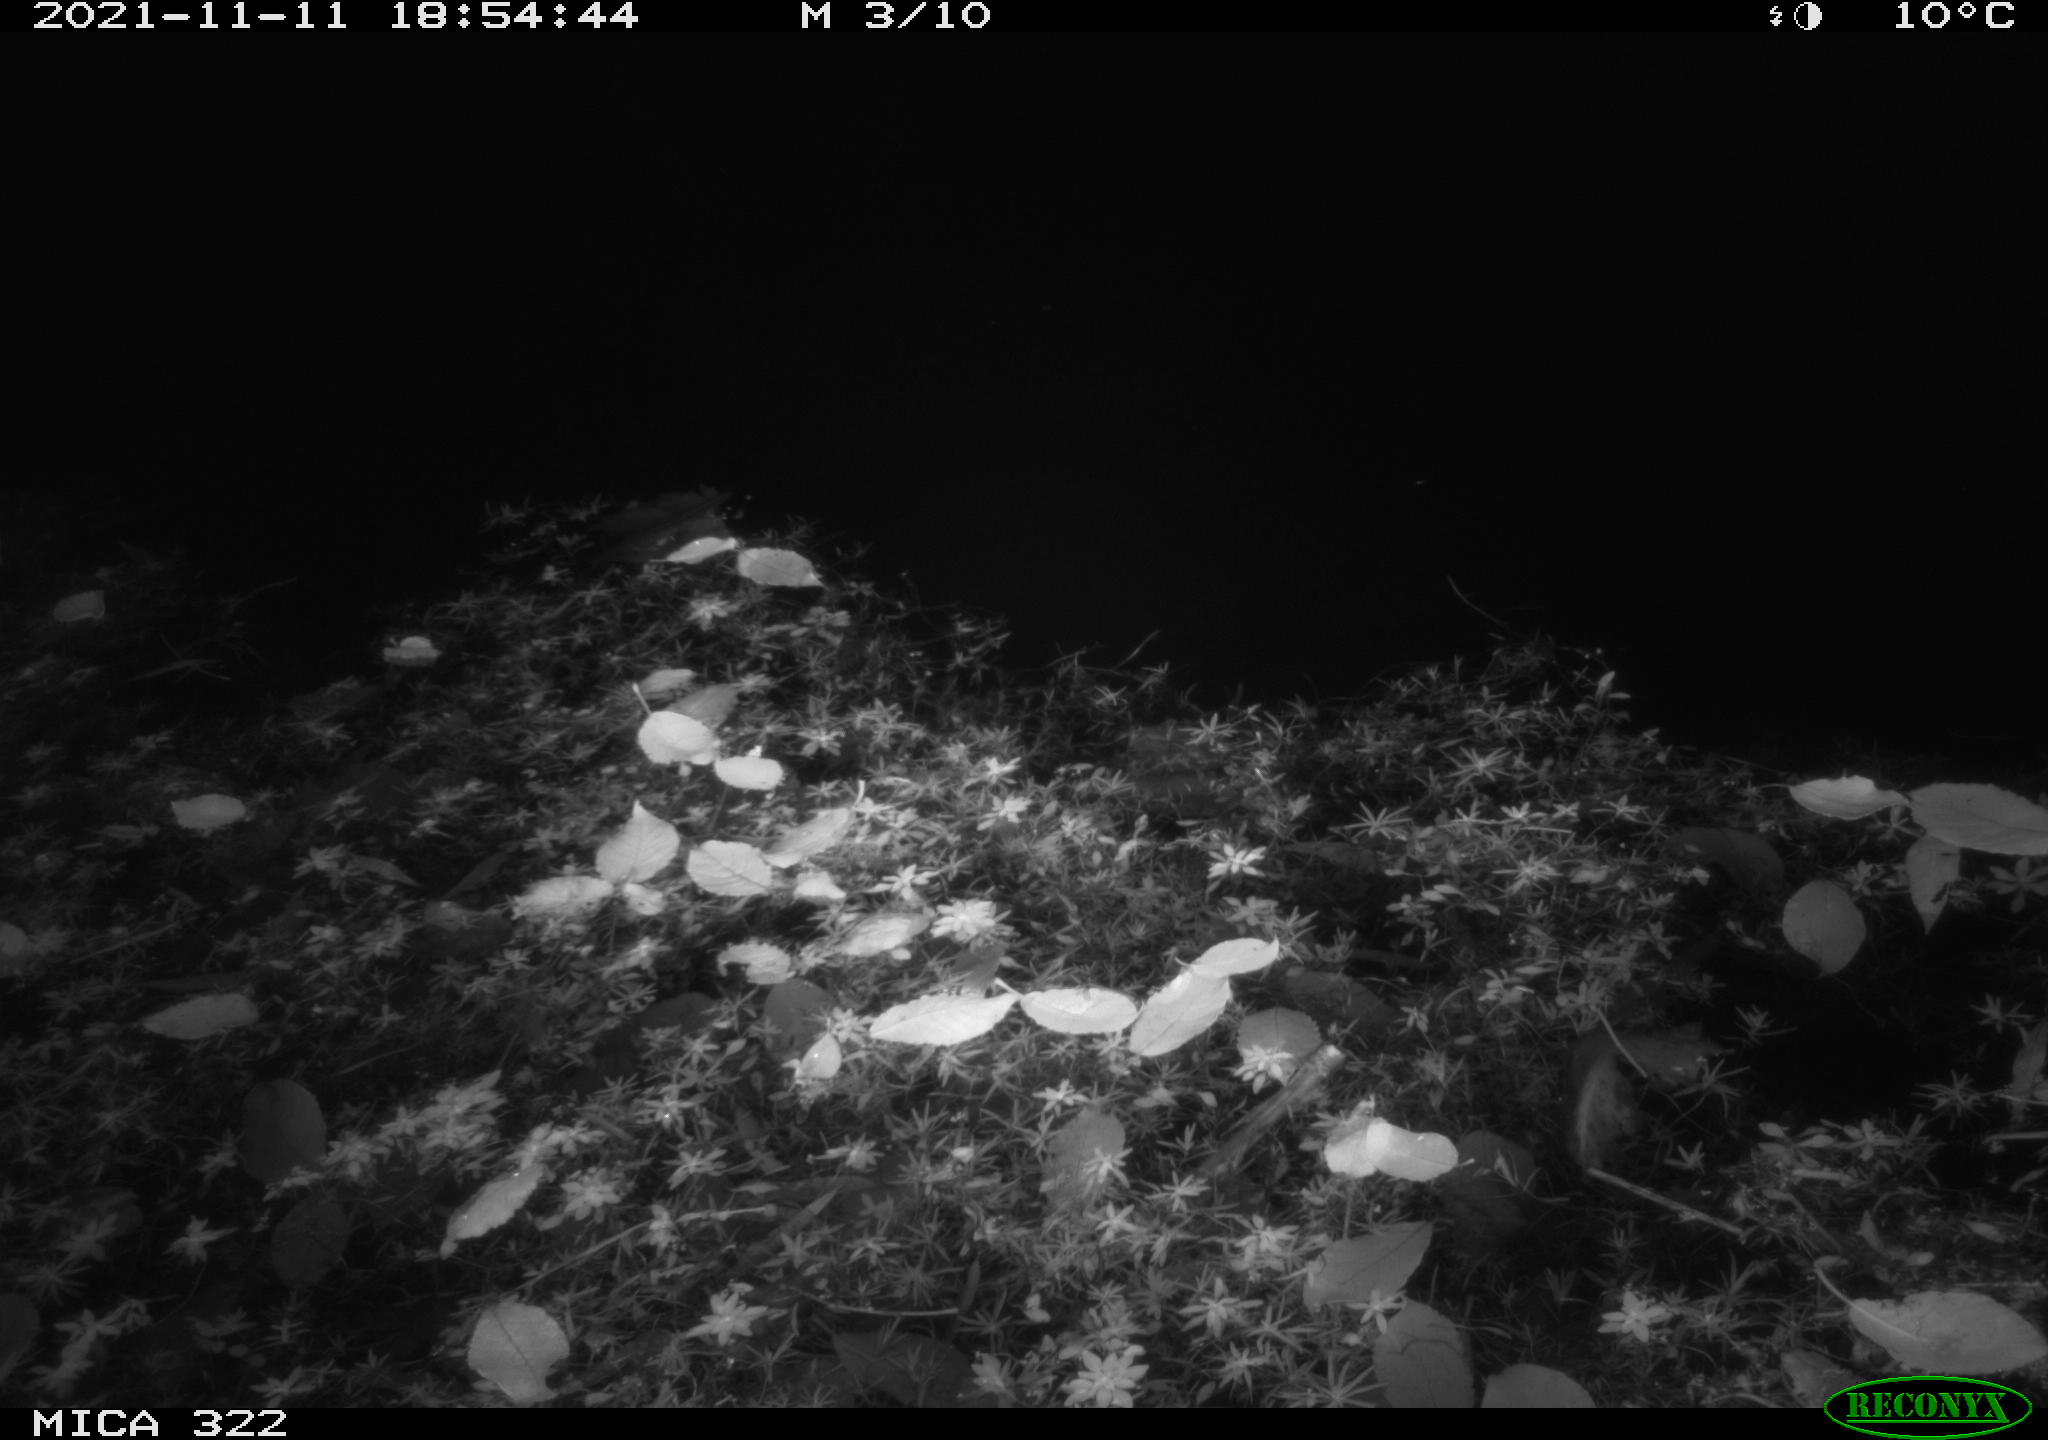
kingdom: Animalia
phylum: Chordata
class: Mammalia
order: Rodentia
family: Muridae
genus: Rattus
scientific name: Rattus norvegicus
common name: Brown rat
